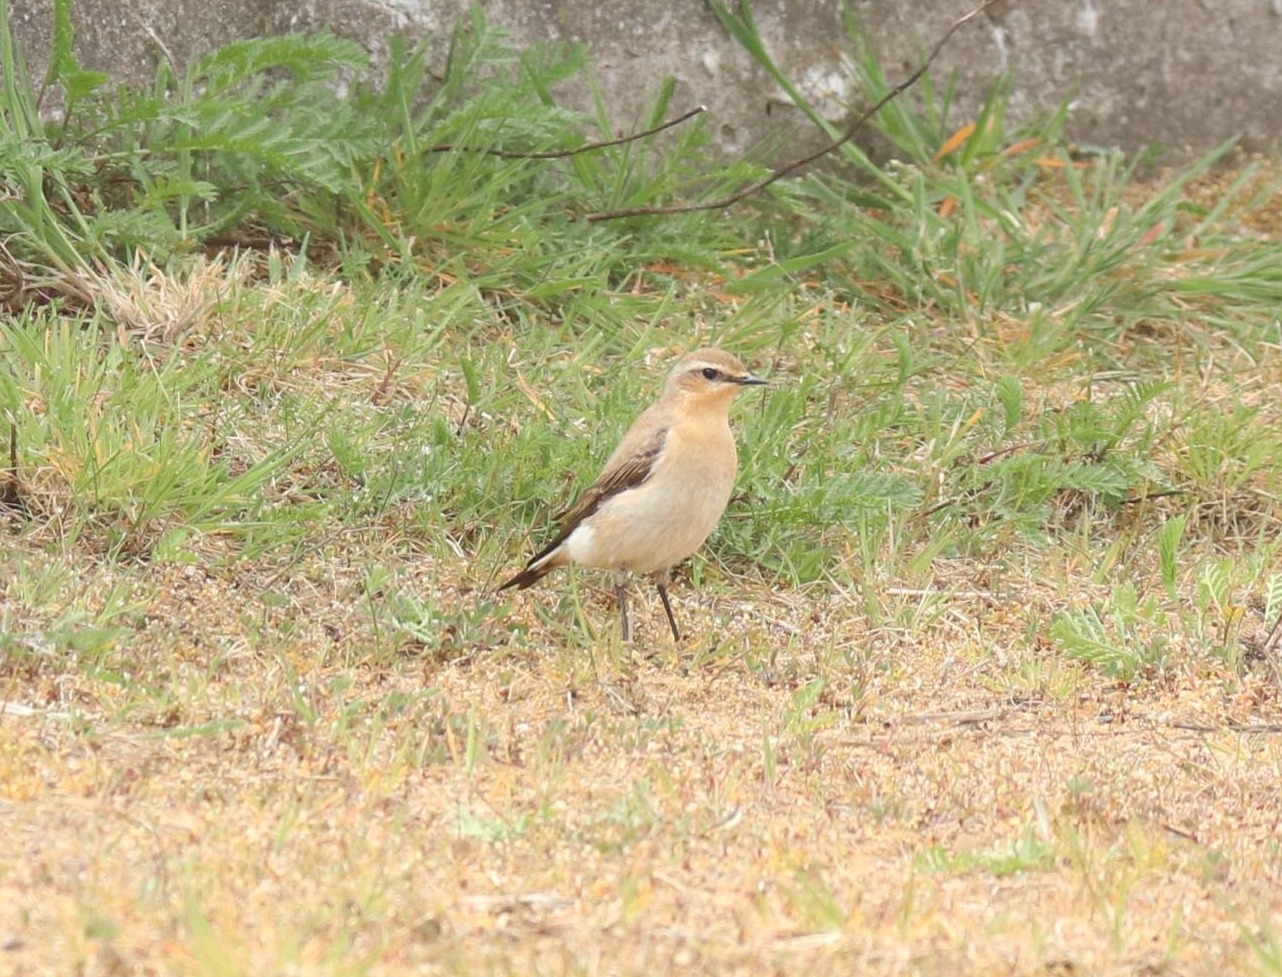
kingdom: Animalia
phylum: Chordata
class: Aves
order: Passeriformes
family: Muscicapidae
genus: Oenanthe
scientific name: Oenanthe oenanthe
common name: Stenpikker
